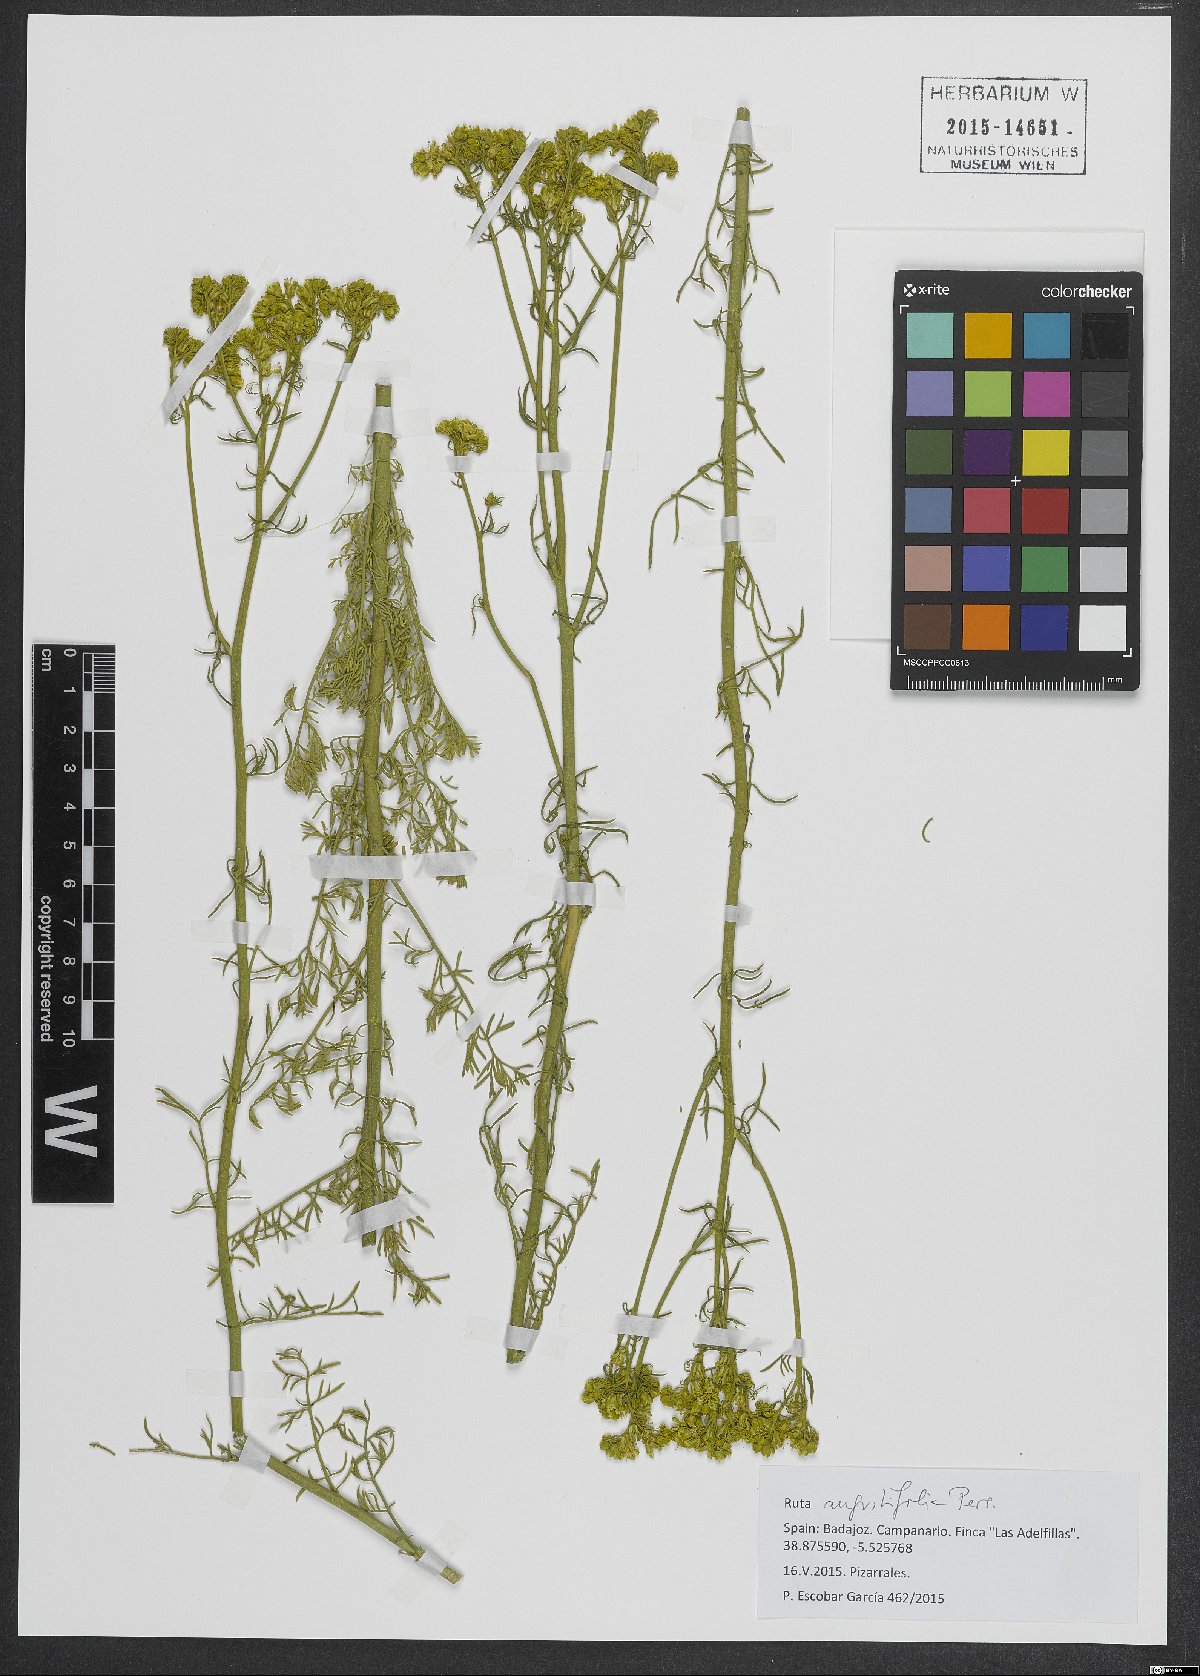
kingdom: Plantae
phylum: Tracheophyta
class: Magnoliopsida
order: Sapindales
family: Rutaceae
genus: Ruta
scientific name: Ruta angustifolia
